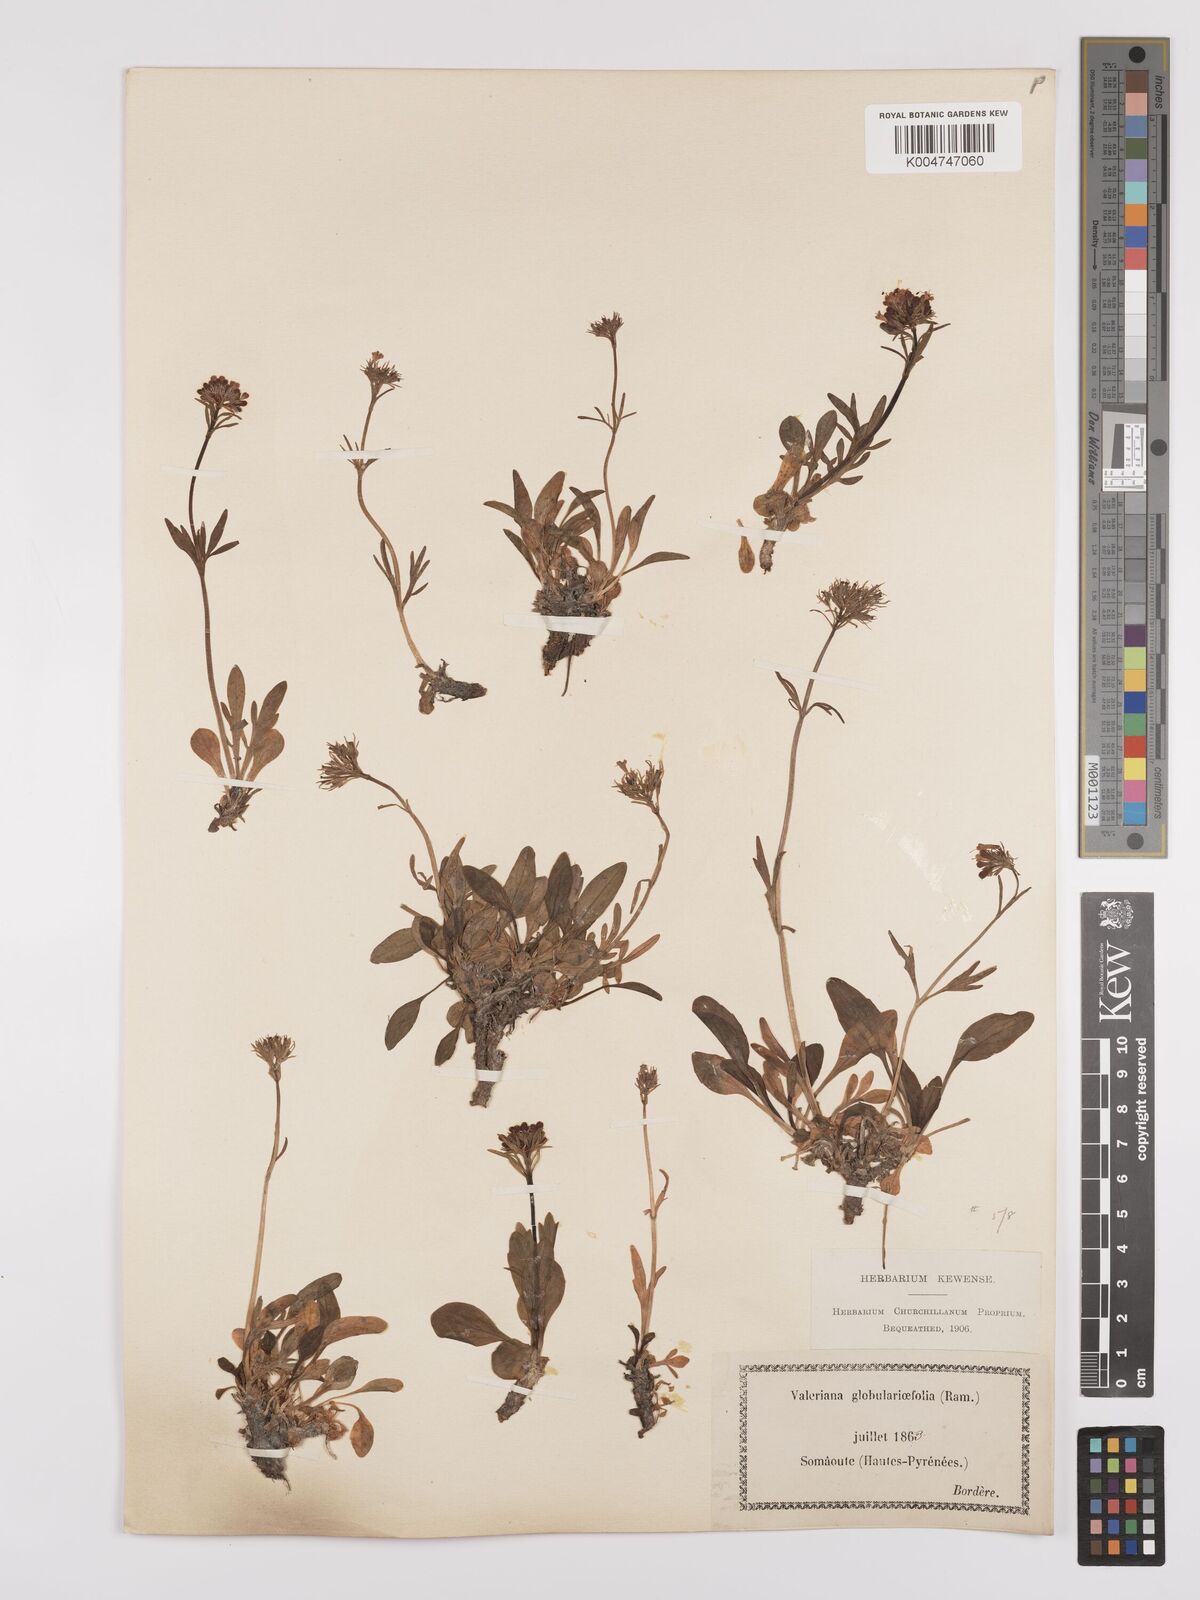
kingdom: Plantae
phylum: Tracheophyta
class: Magnoliopsida
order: Dipsacales
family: Caprifoliaceae
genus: Valeriana
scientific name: Valeriana apula
